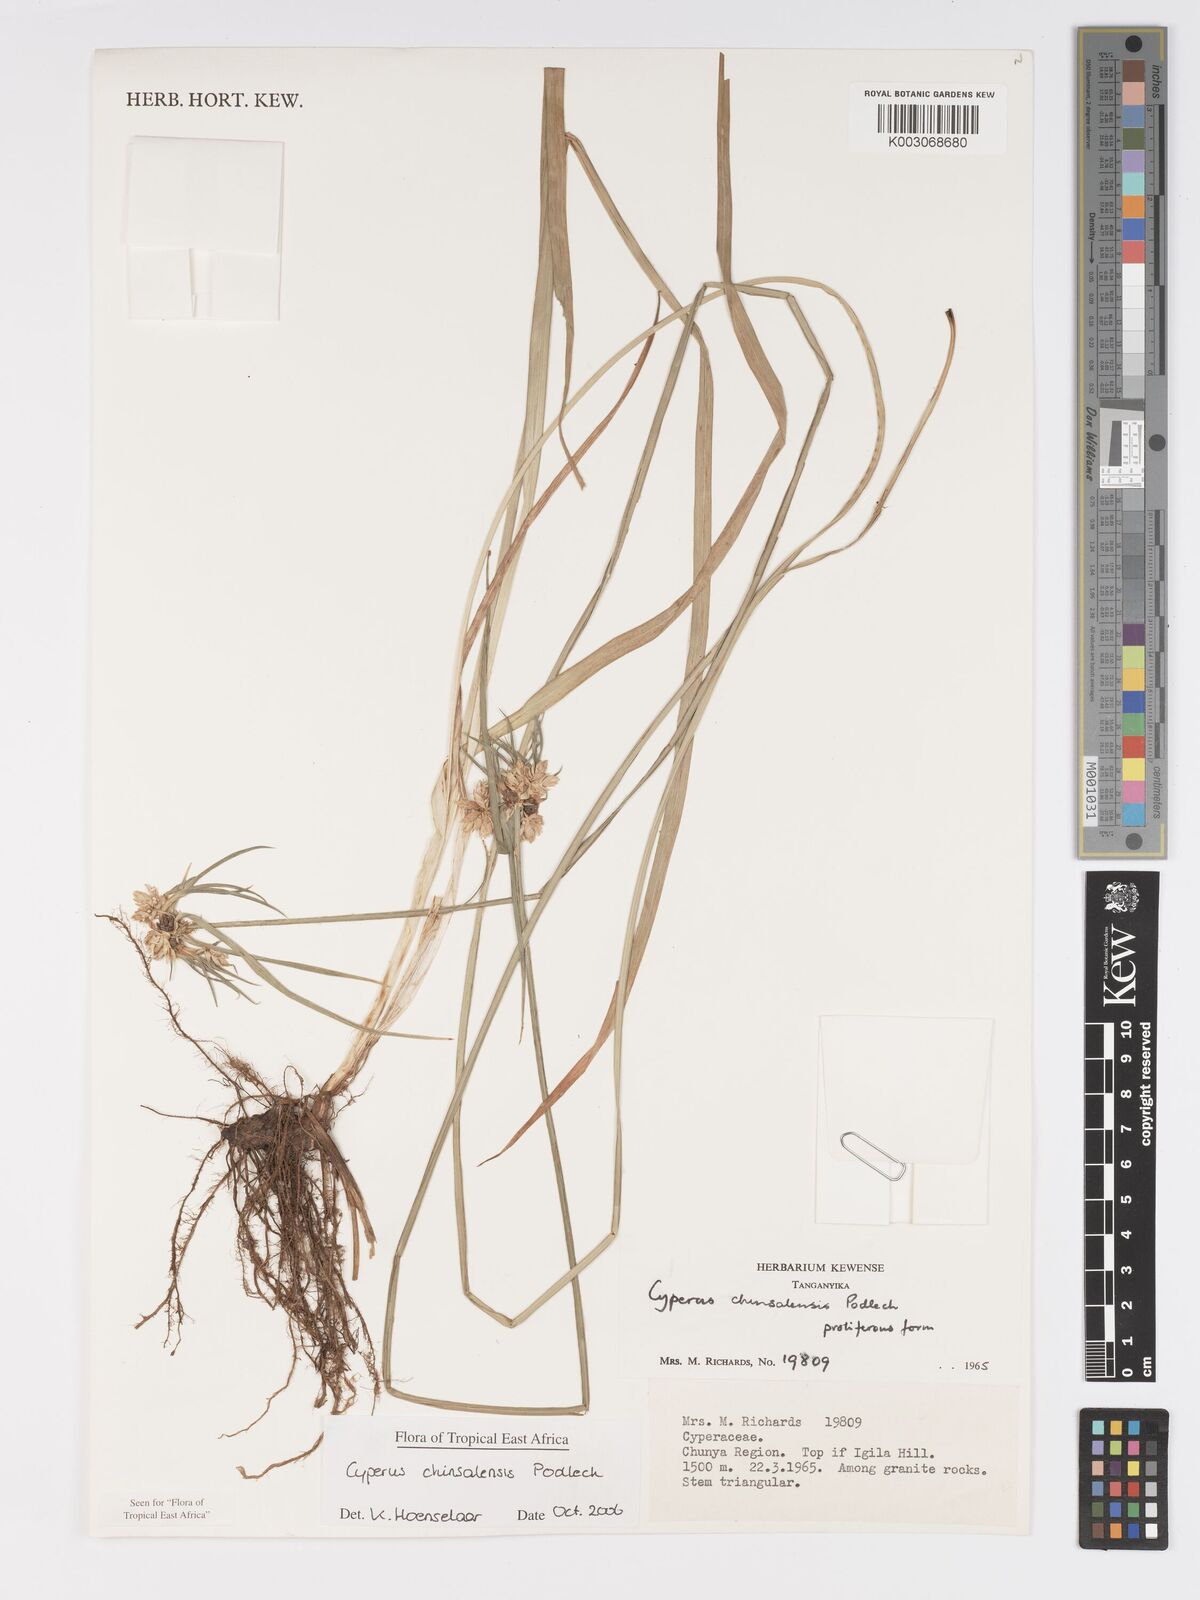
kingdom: Plantae
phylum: Tracheophyta
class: Liliopsida
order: Poales
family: Cyperaceae
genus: Cyperus
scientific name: Cyperus chinsalensis
